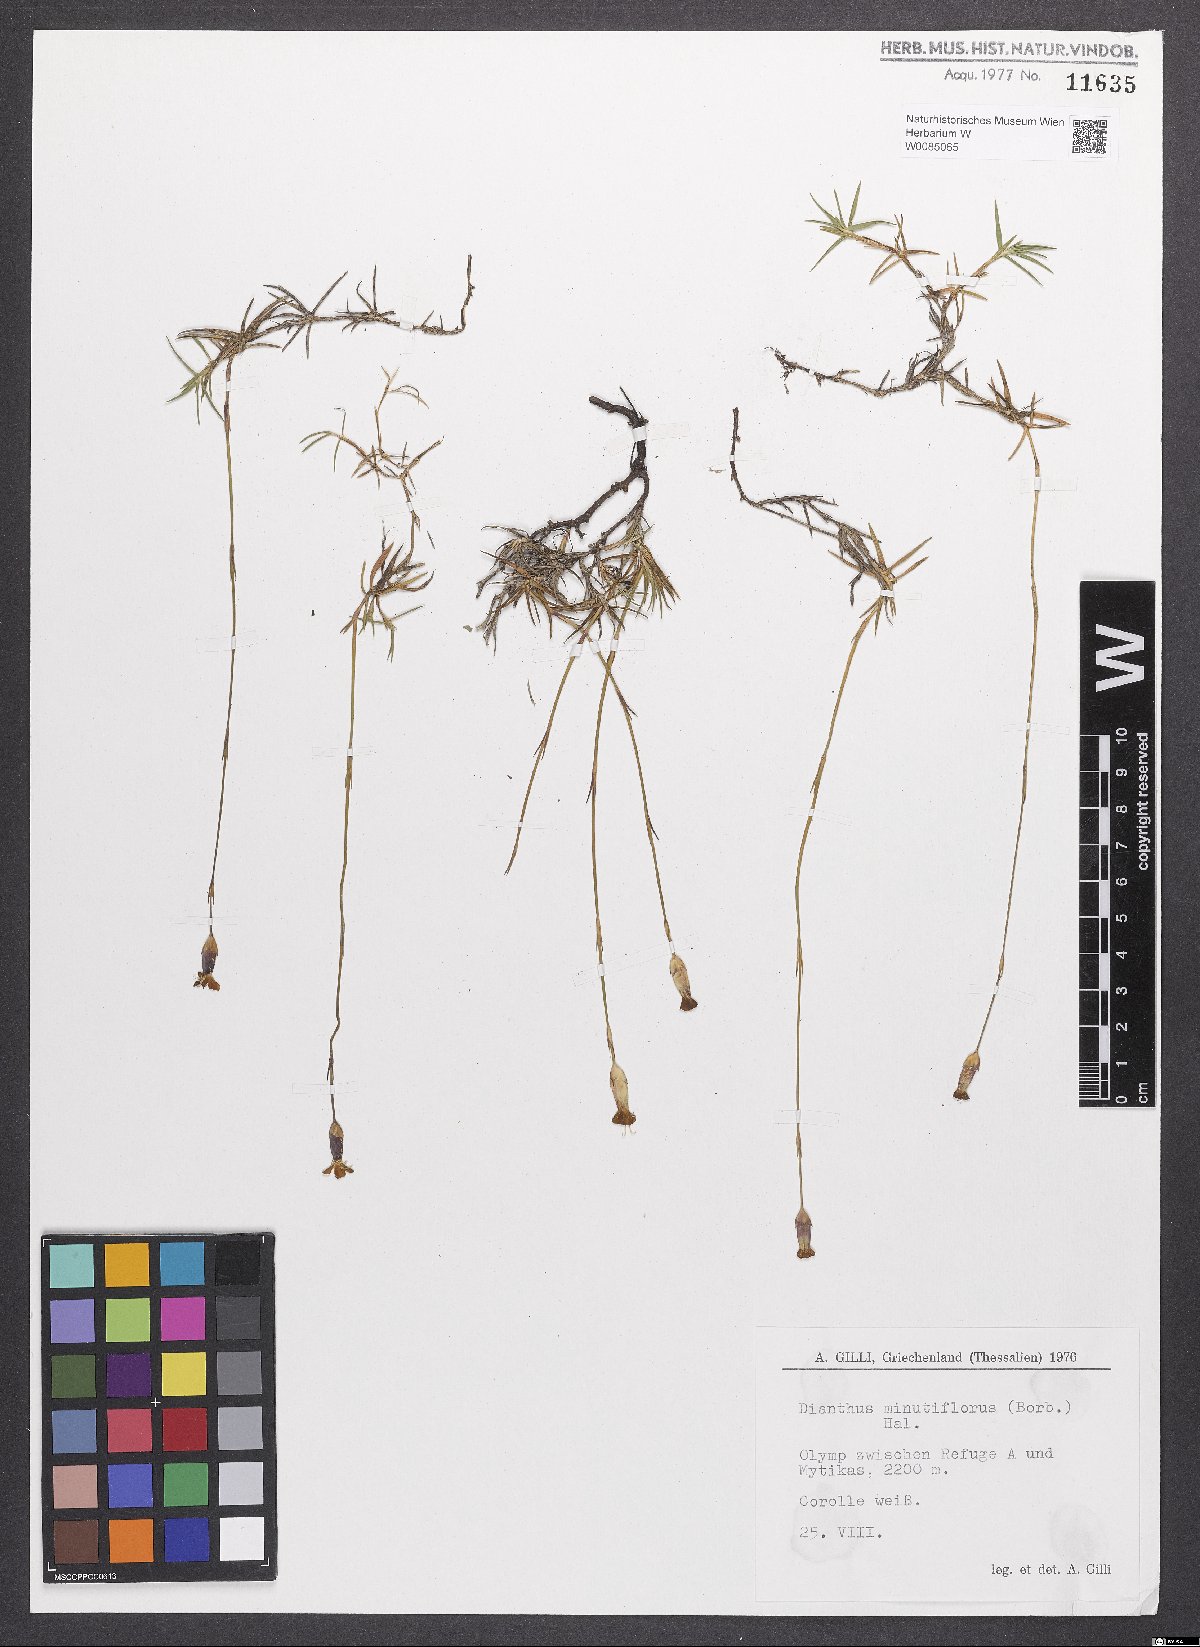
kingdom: Plantae
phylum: Tracheophyta
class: Magnoliopsida
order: Caryophyllales
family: Caryophyllaceae
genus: Dianthus
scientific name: Dianthus integer
